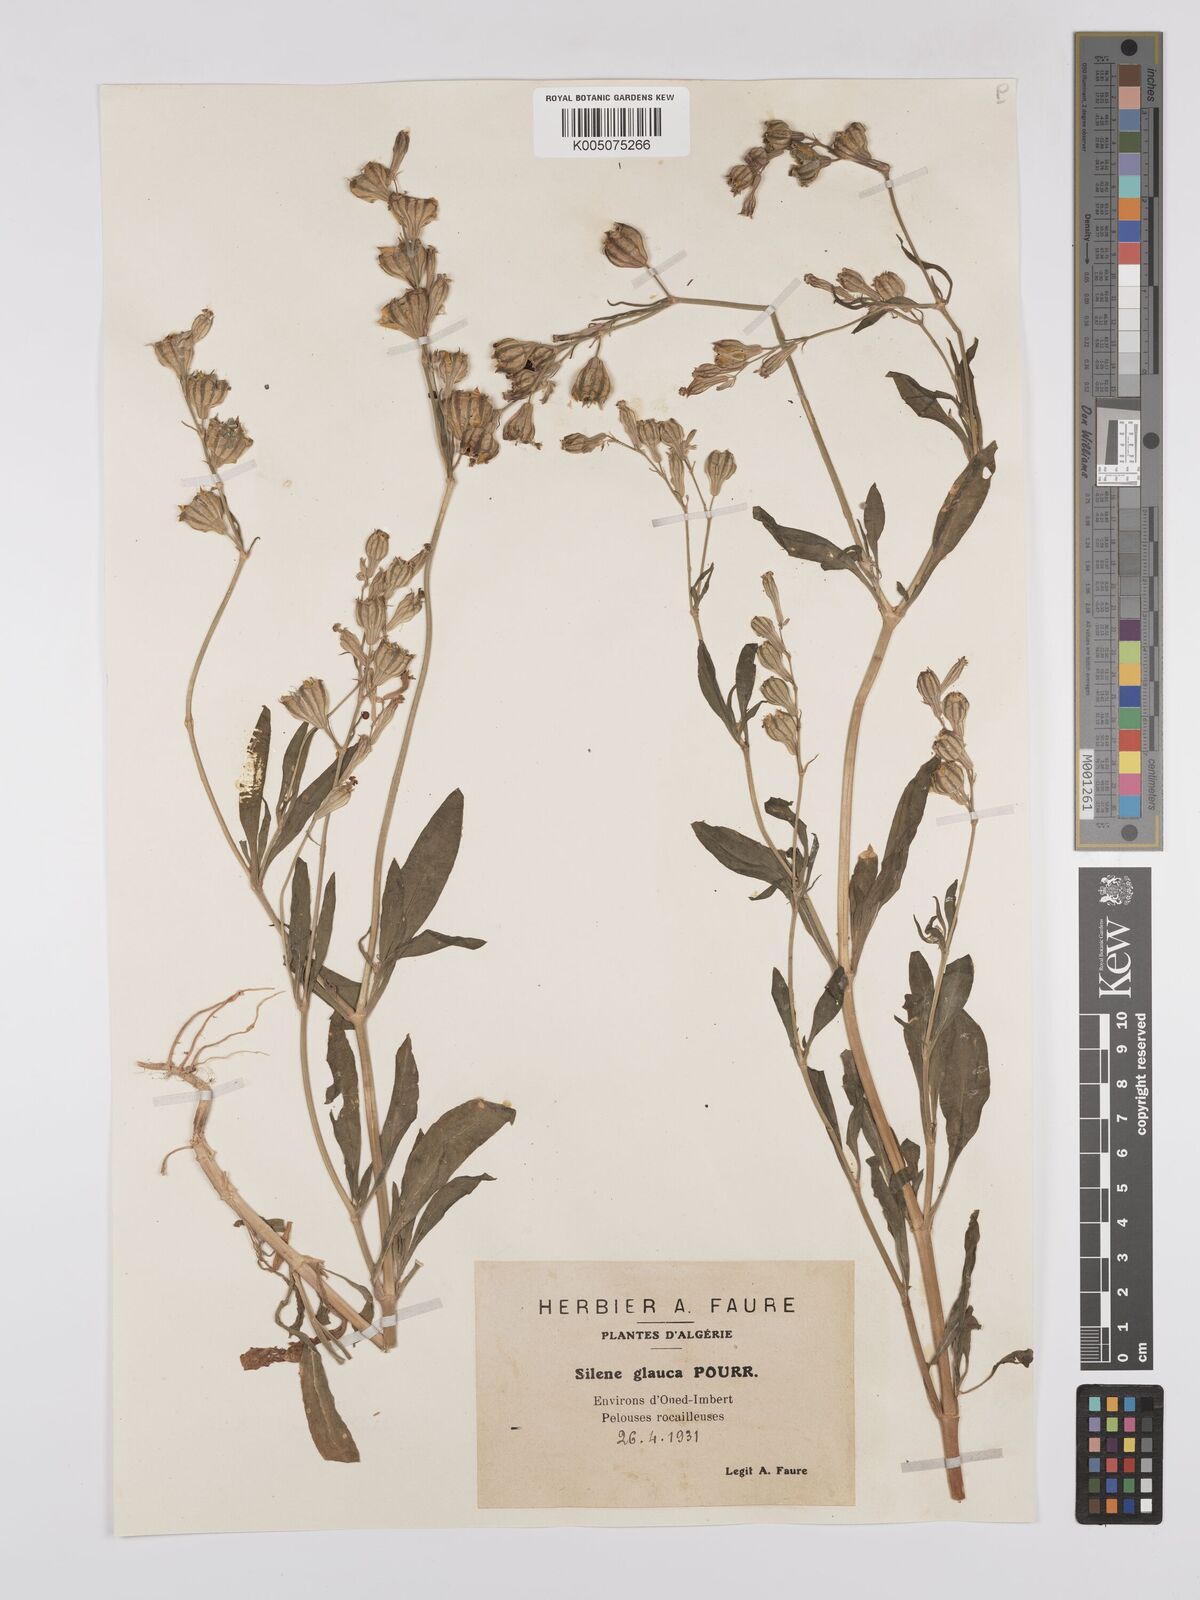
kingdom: Plantae
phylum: Tracheophyta
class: Magnoliopsida
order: Caryophyllales
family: Caryophyllaceae
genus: Silene
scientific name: Silene secundiflora
